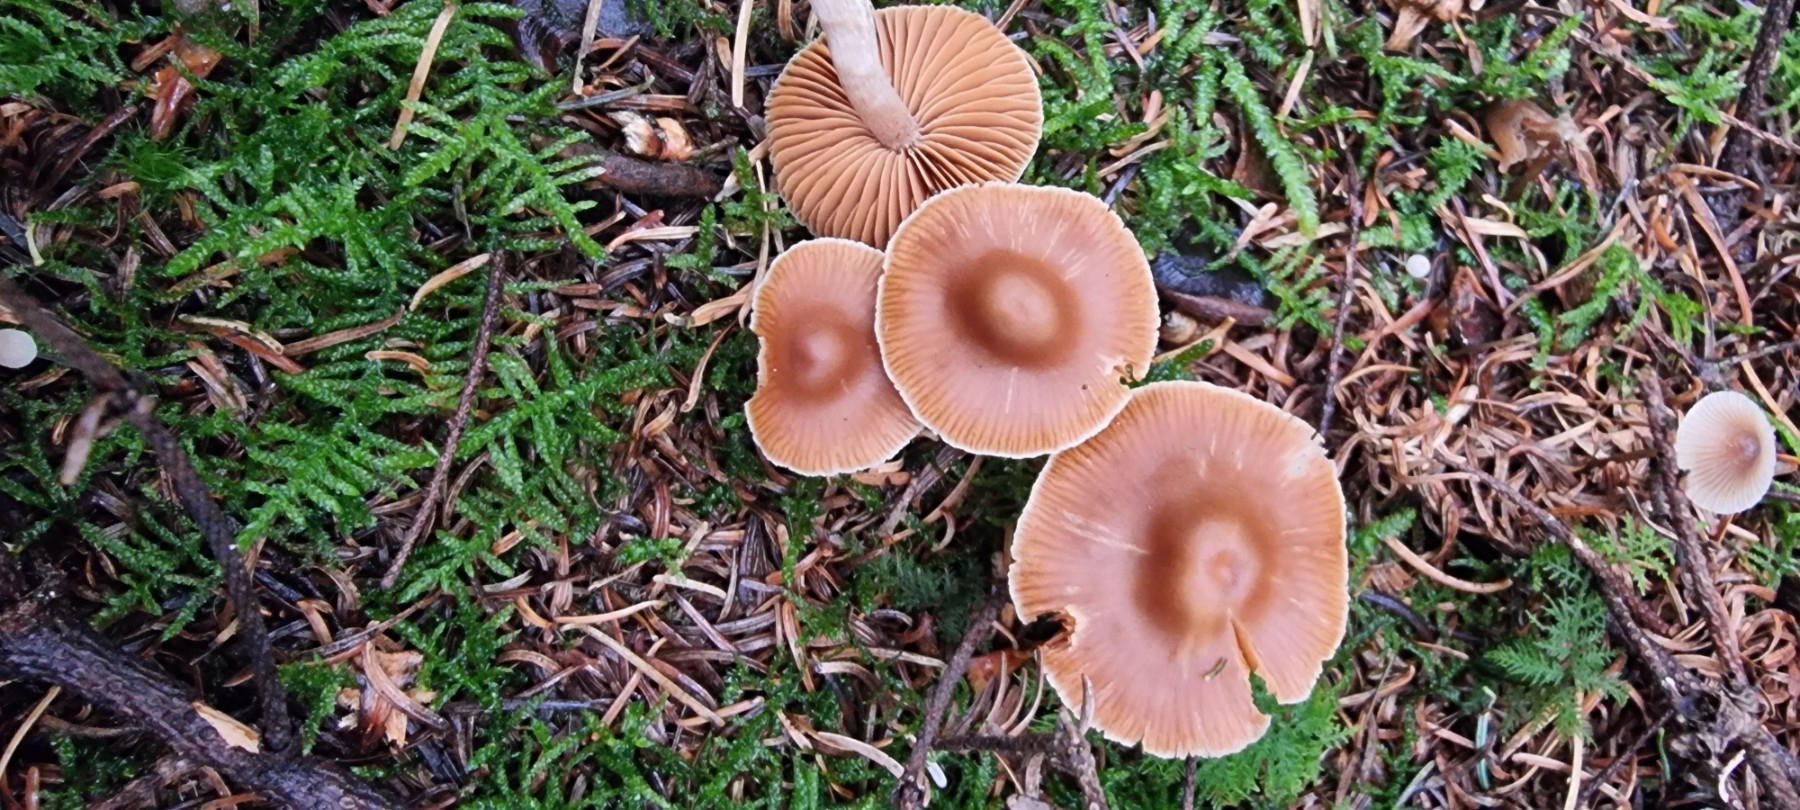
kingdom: Fungi
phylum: Basidiomycota
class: Agaricomycetes
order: Agaricales
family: Cortinariaceae
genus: Cortinarius
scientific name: Cortinarius
